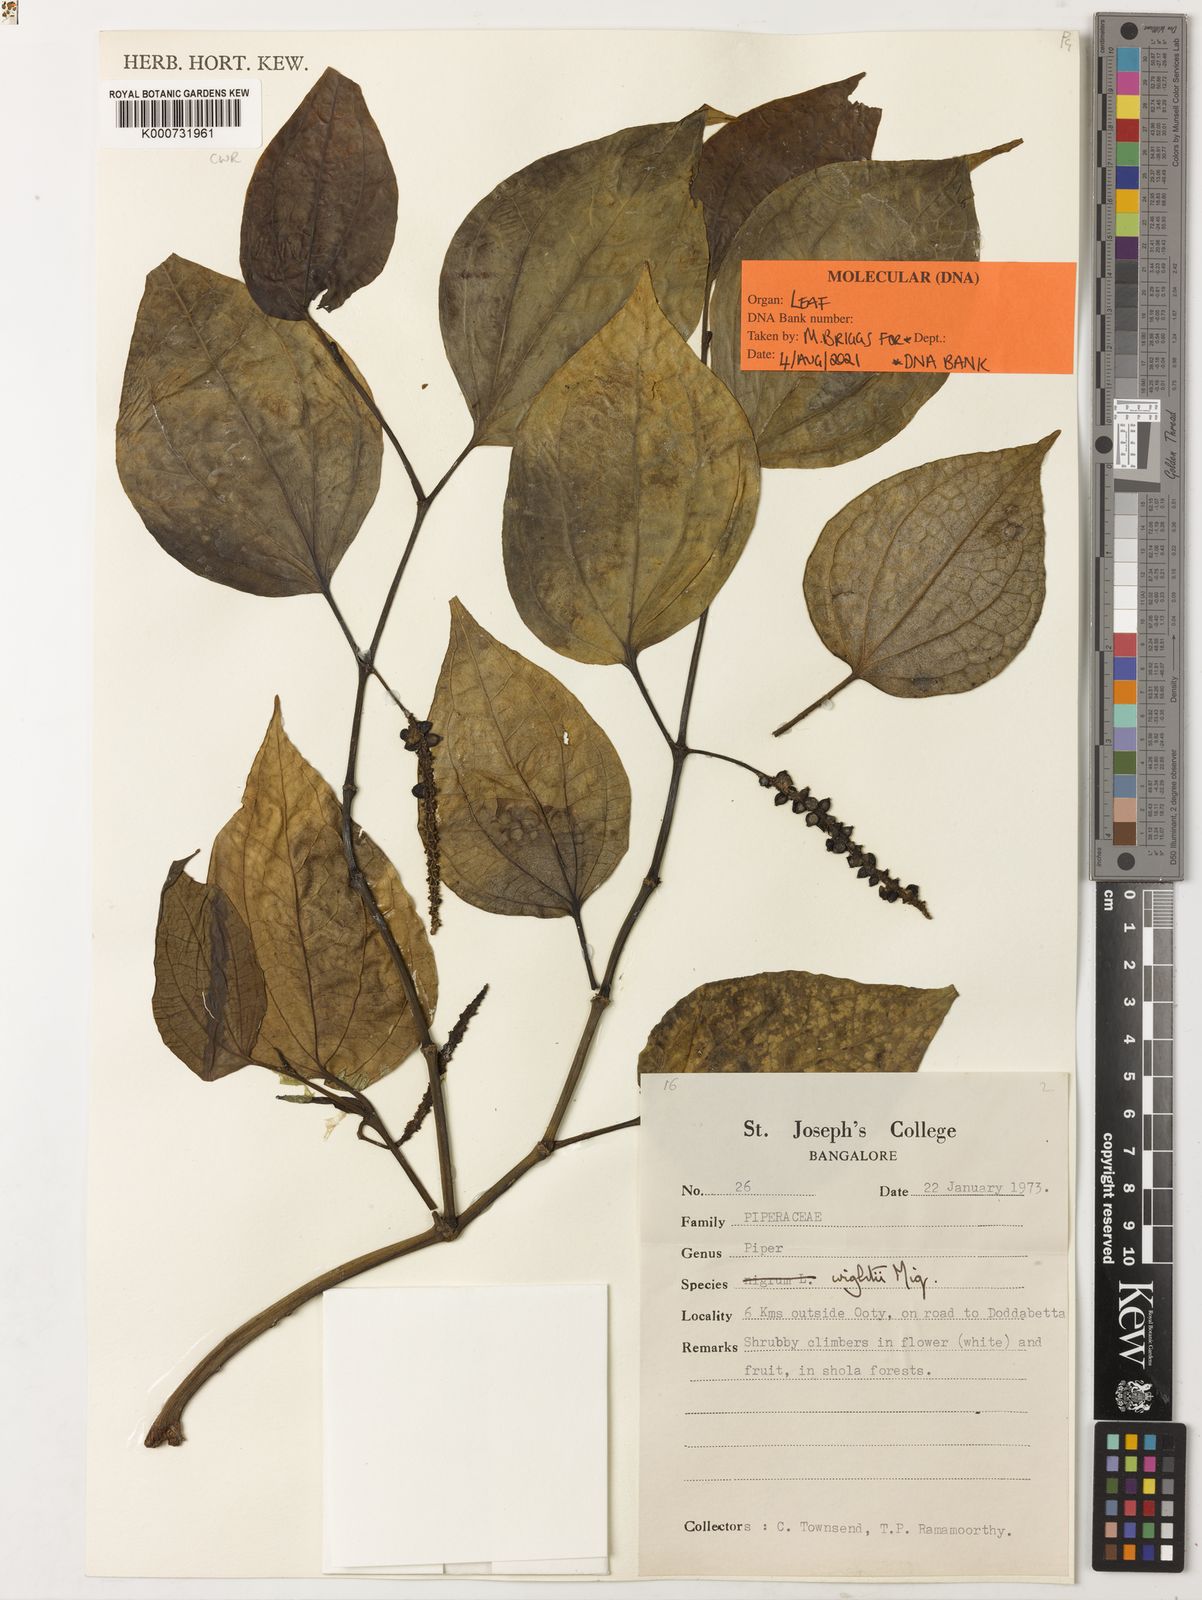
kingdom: Plantae
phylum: Tracheophyta
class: Magnoliopsida
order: Piperales
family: Piperaceae
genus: Piper
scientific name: Piper
